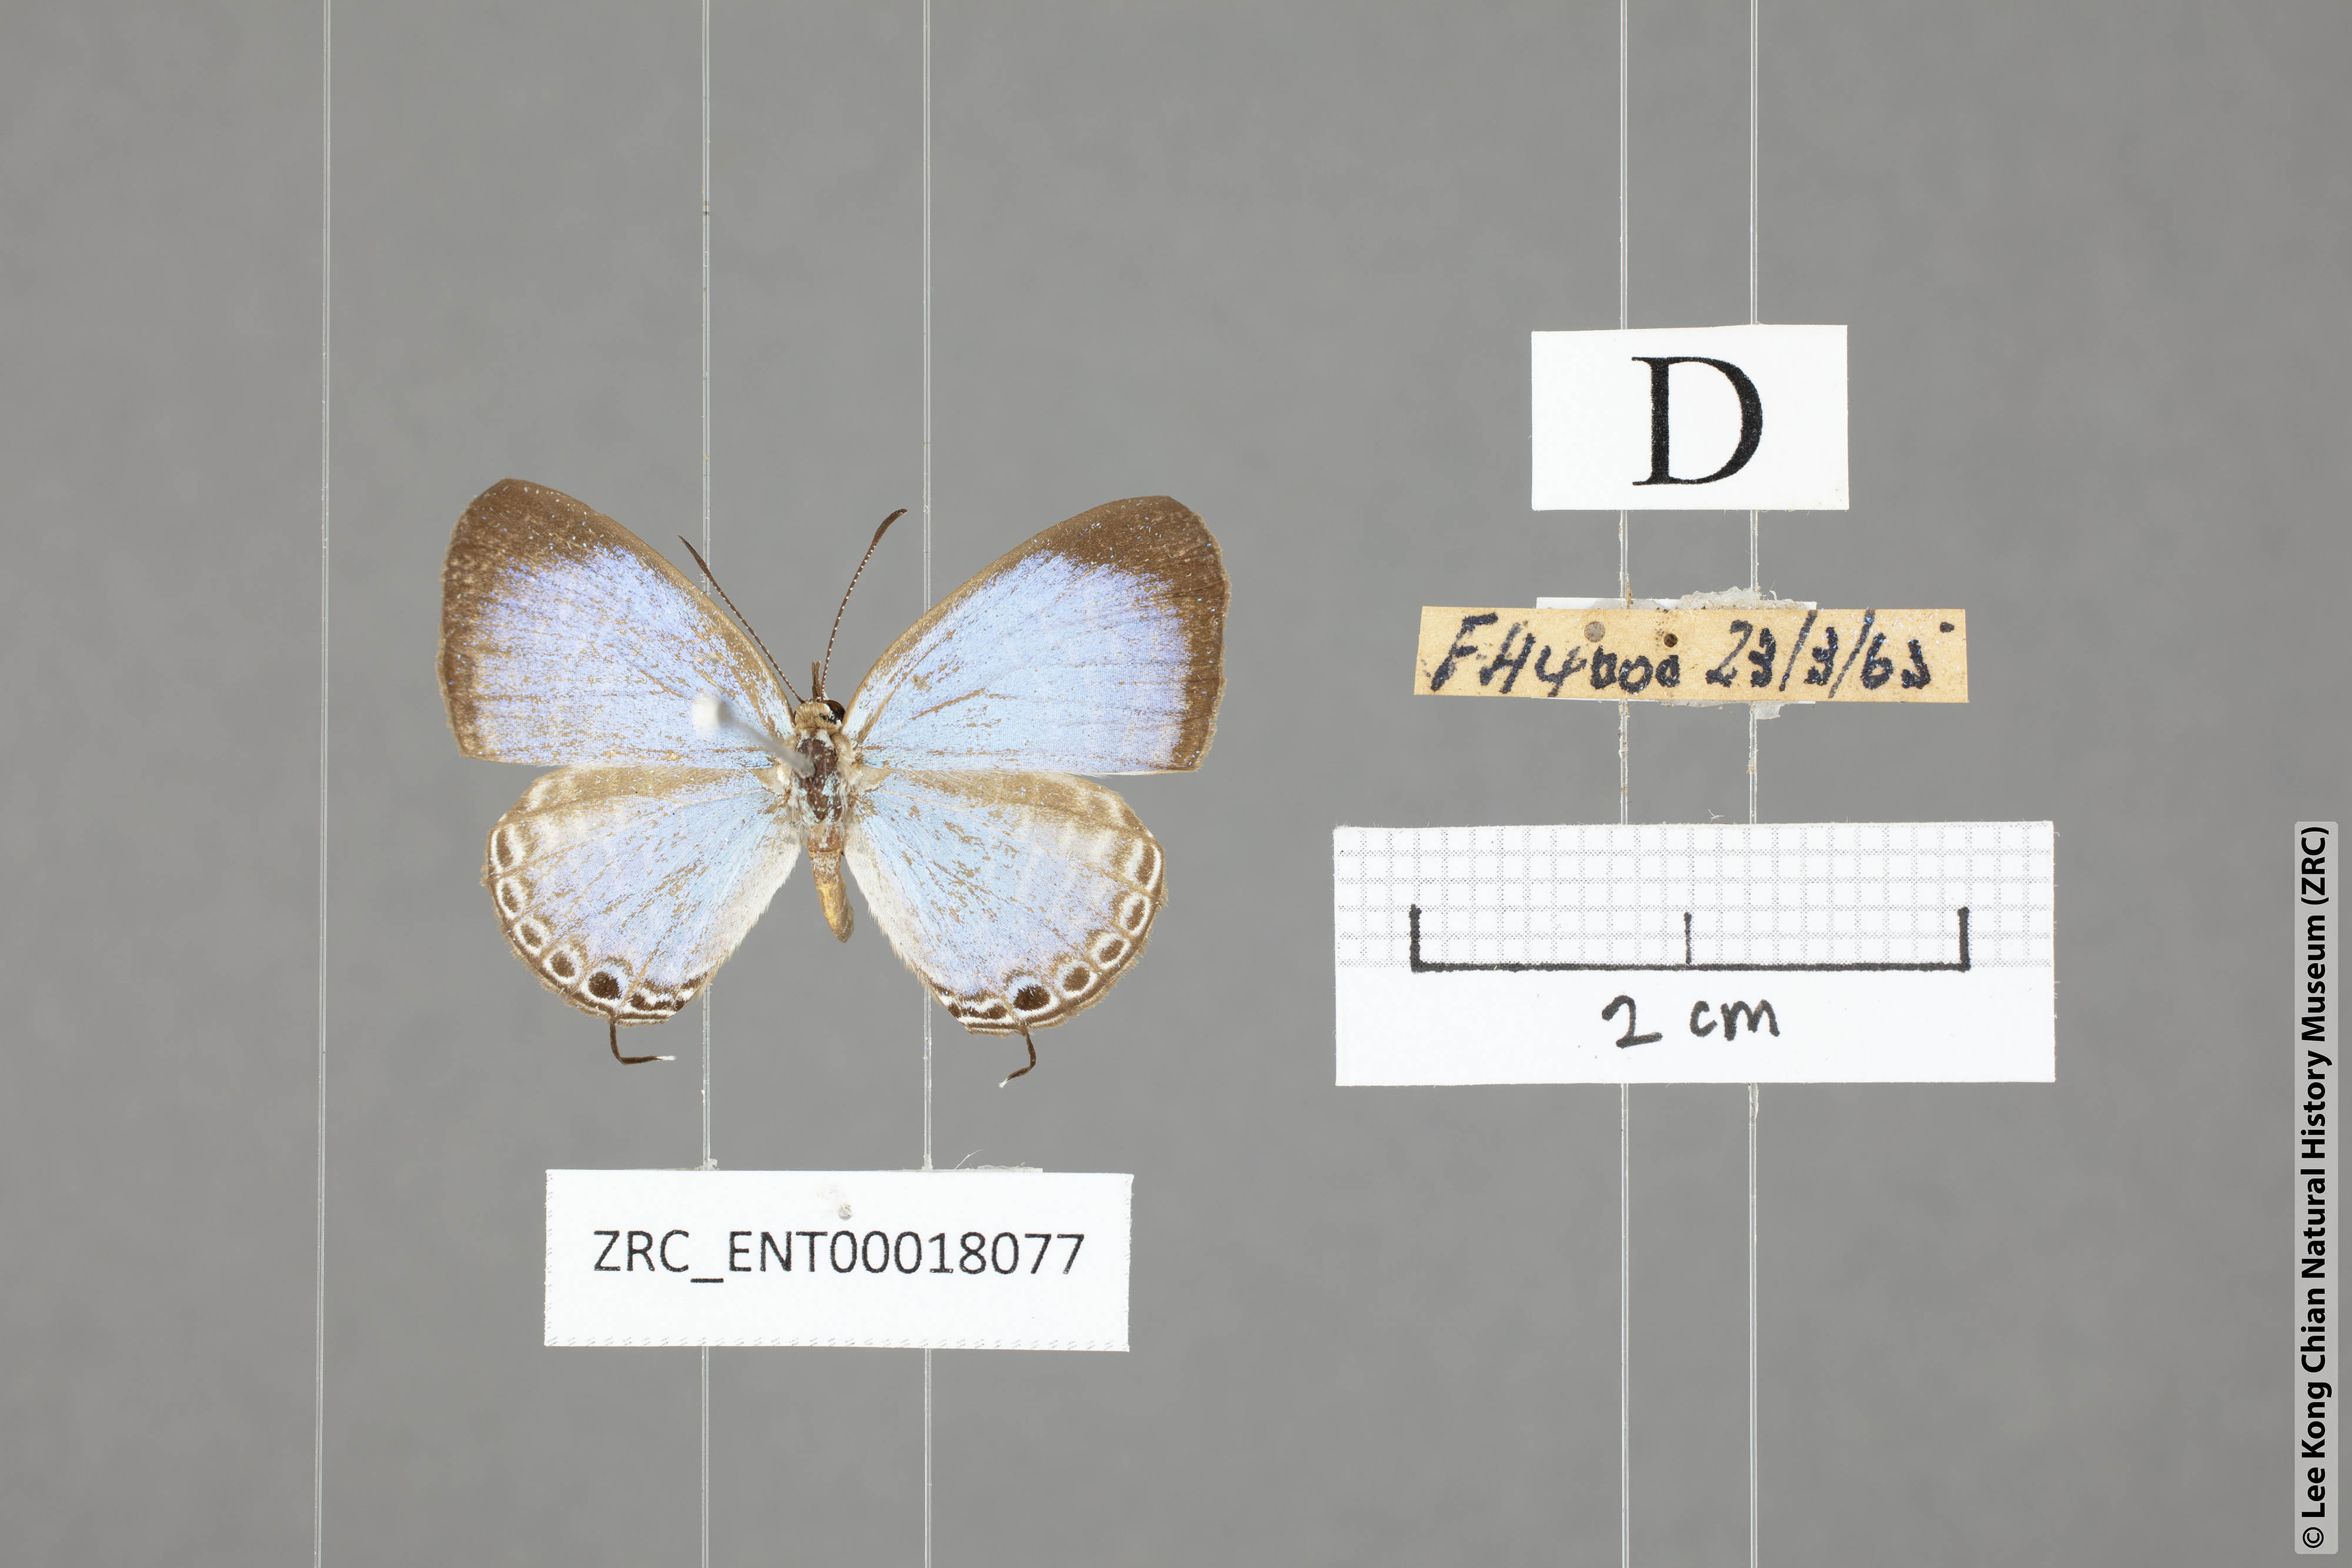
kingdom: Animalia
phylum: Arthropoda
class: Insecta
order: Lepidoptera
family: Lycaenidae
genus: Jamides
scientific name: Jamides caerulea
